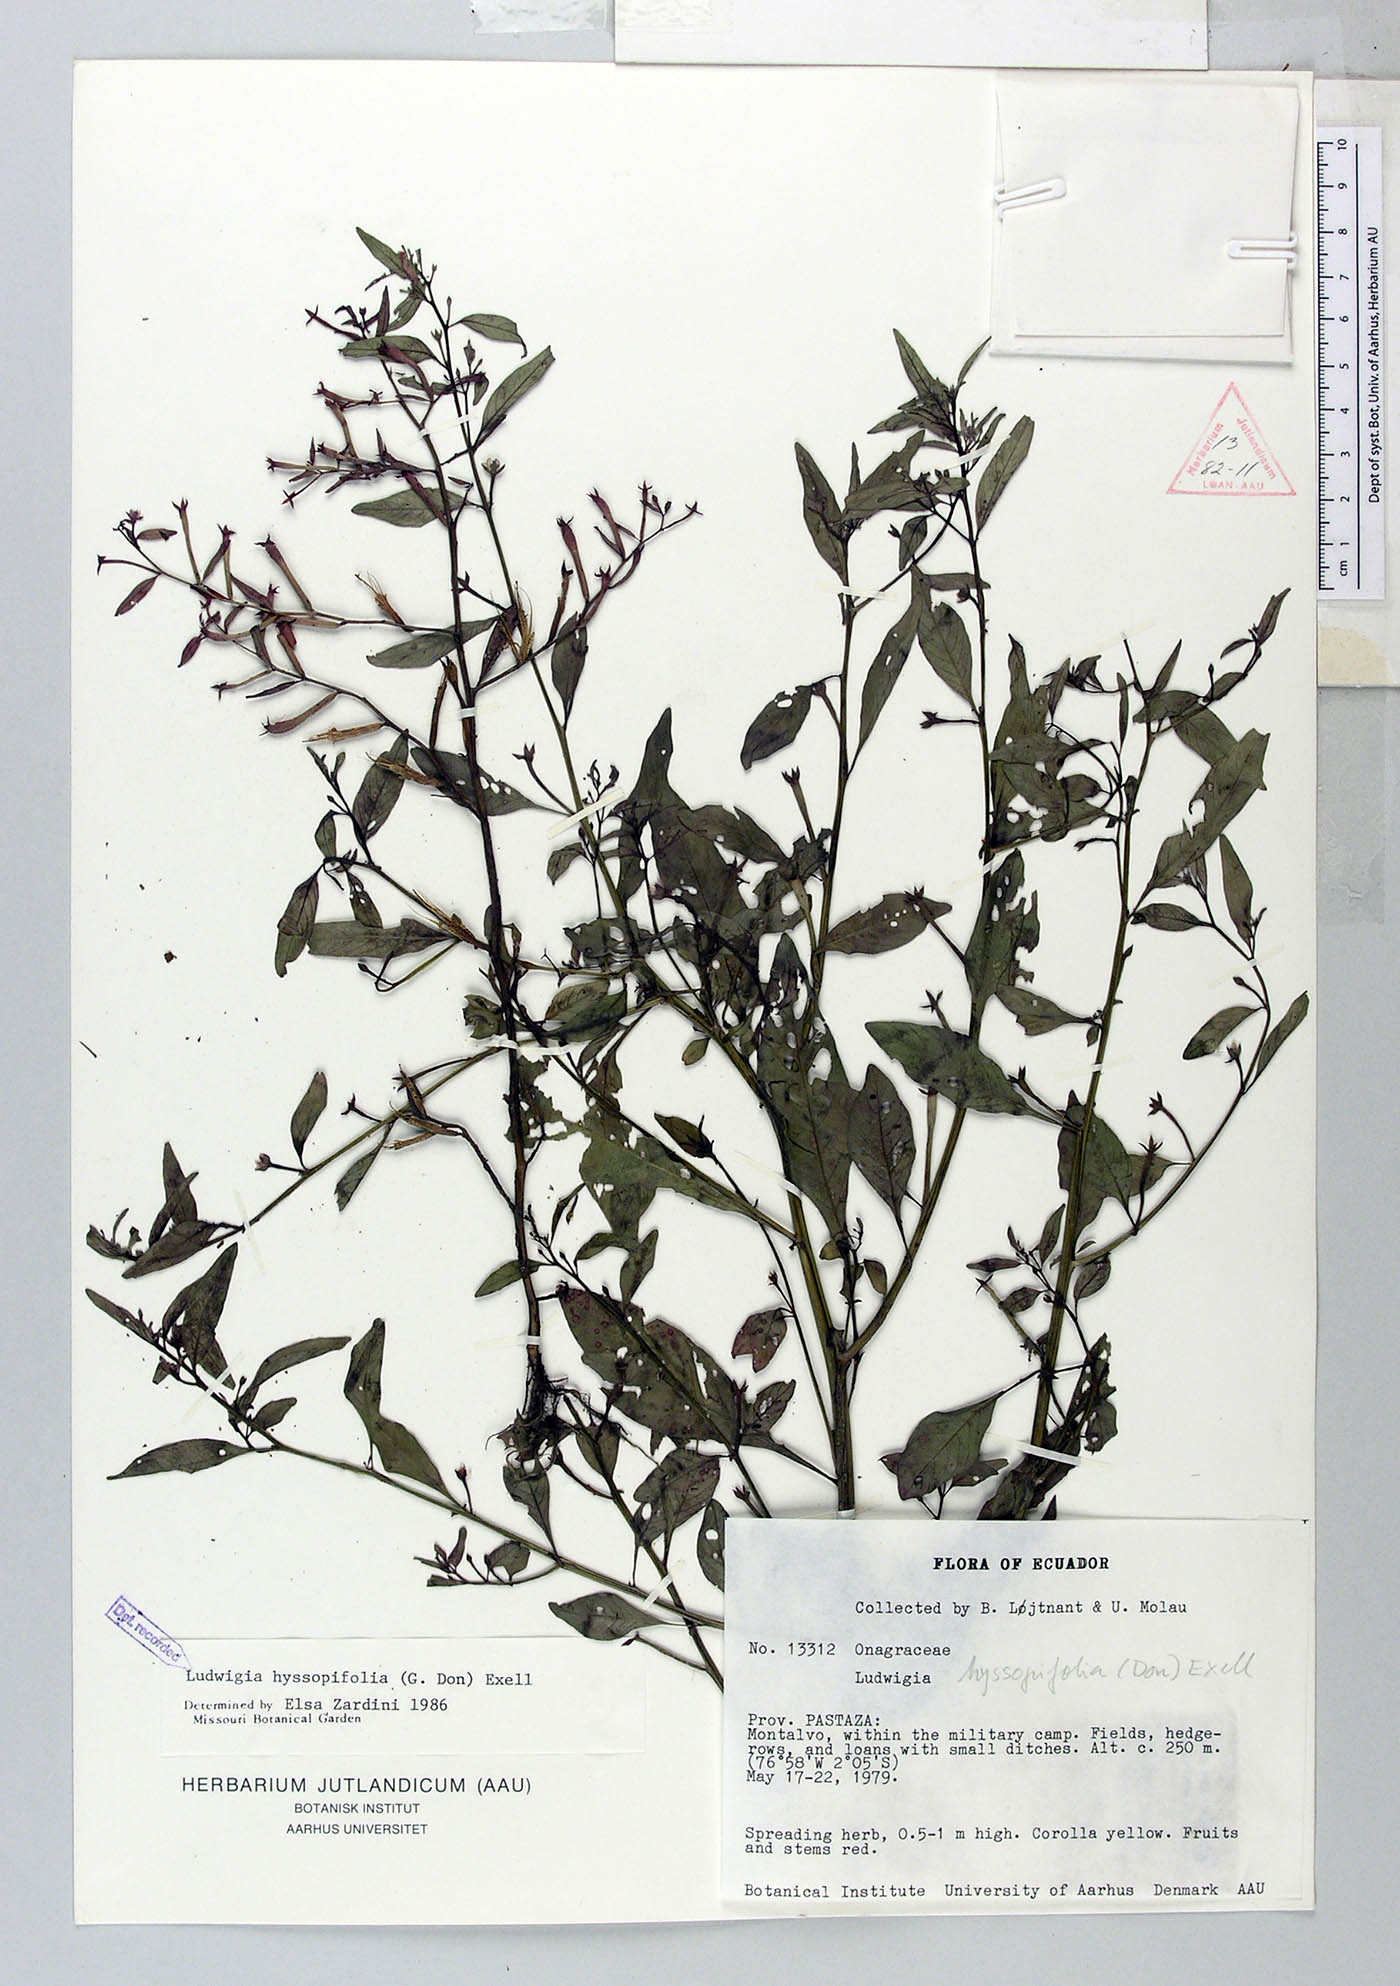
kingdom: Plantae
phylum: Tracheophyta
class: Magnoliopsida
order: Myrtales
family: Onagraceae
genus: Ludwigia
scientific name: Ludwigia hyssopifolia
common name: Linear leaf water primrose
